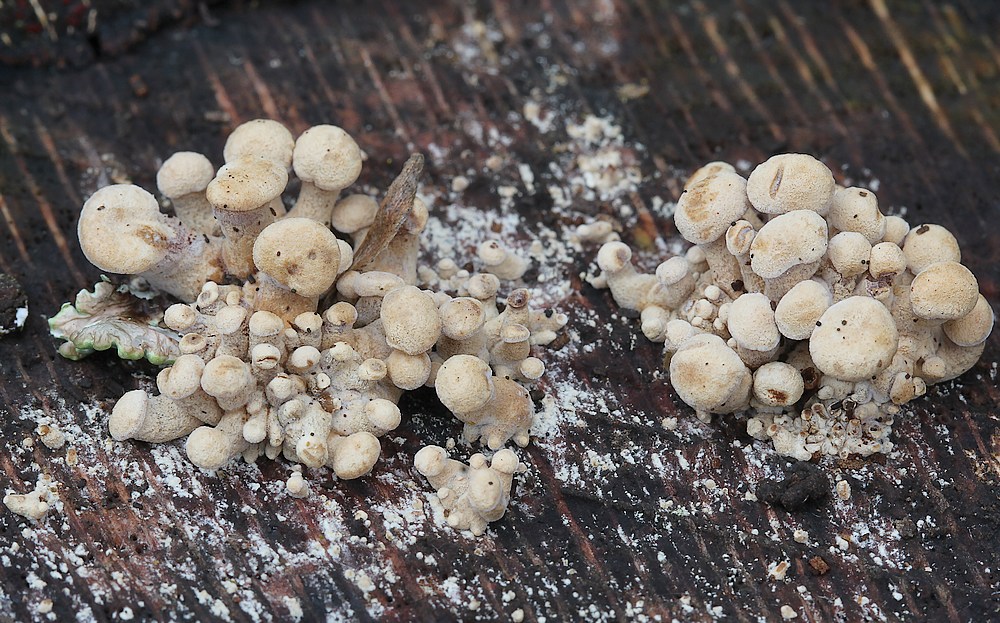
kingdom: Fungi
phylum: Basidiomycota
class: Agaricomycetes
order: Agaricales
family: Mycenaceae
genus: Panellus
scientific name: Panellus stipticus
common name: kliddet epaulethat
